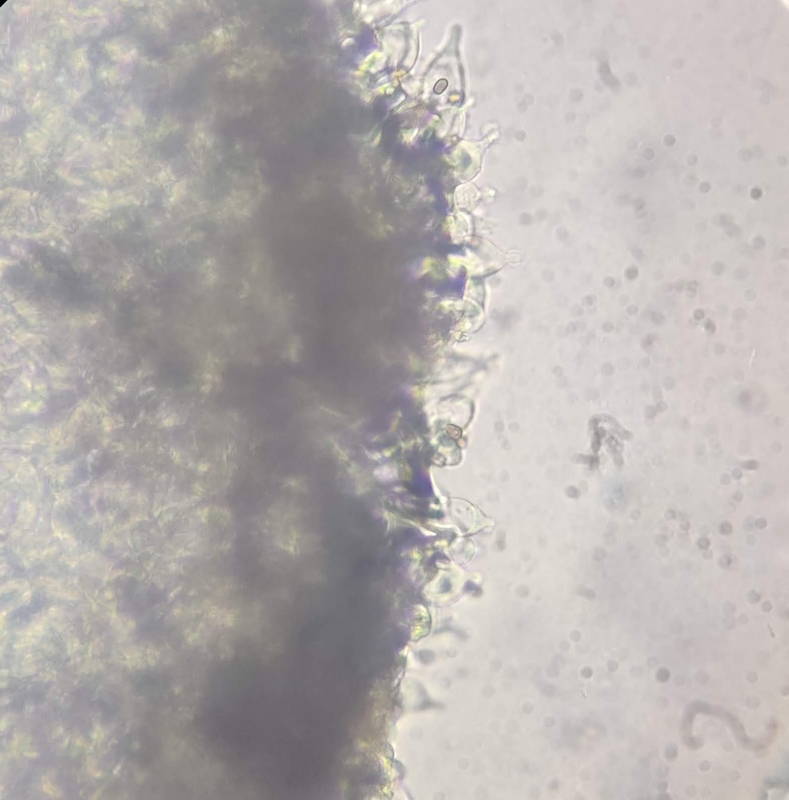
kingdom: Fungi
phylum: Basidiomycota
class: Agaricomycetes
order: Agaricales
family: Psathyrellaceae
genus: Psathyrella
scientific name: Psathyrella maculata
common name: sortskællet mørkhat
